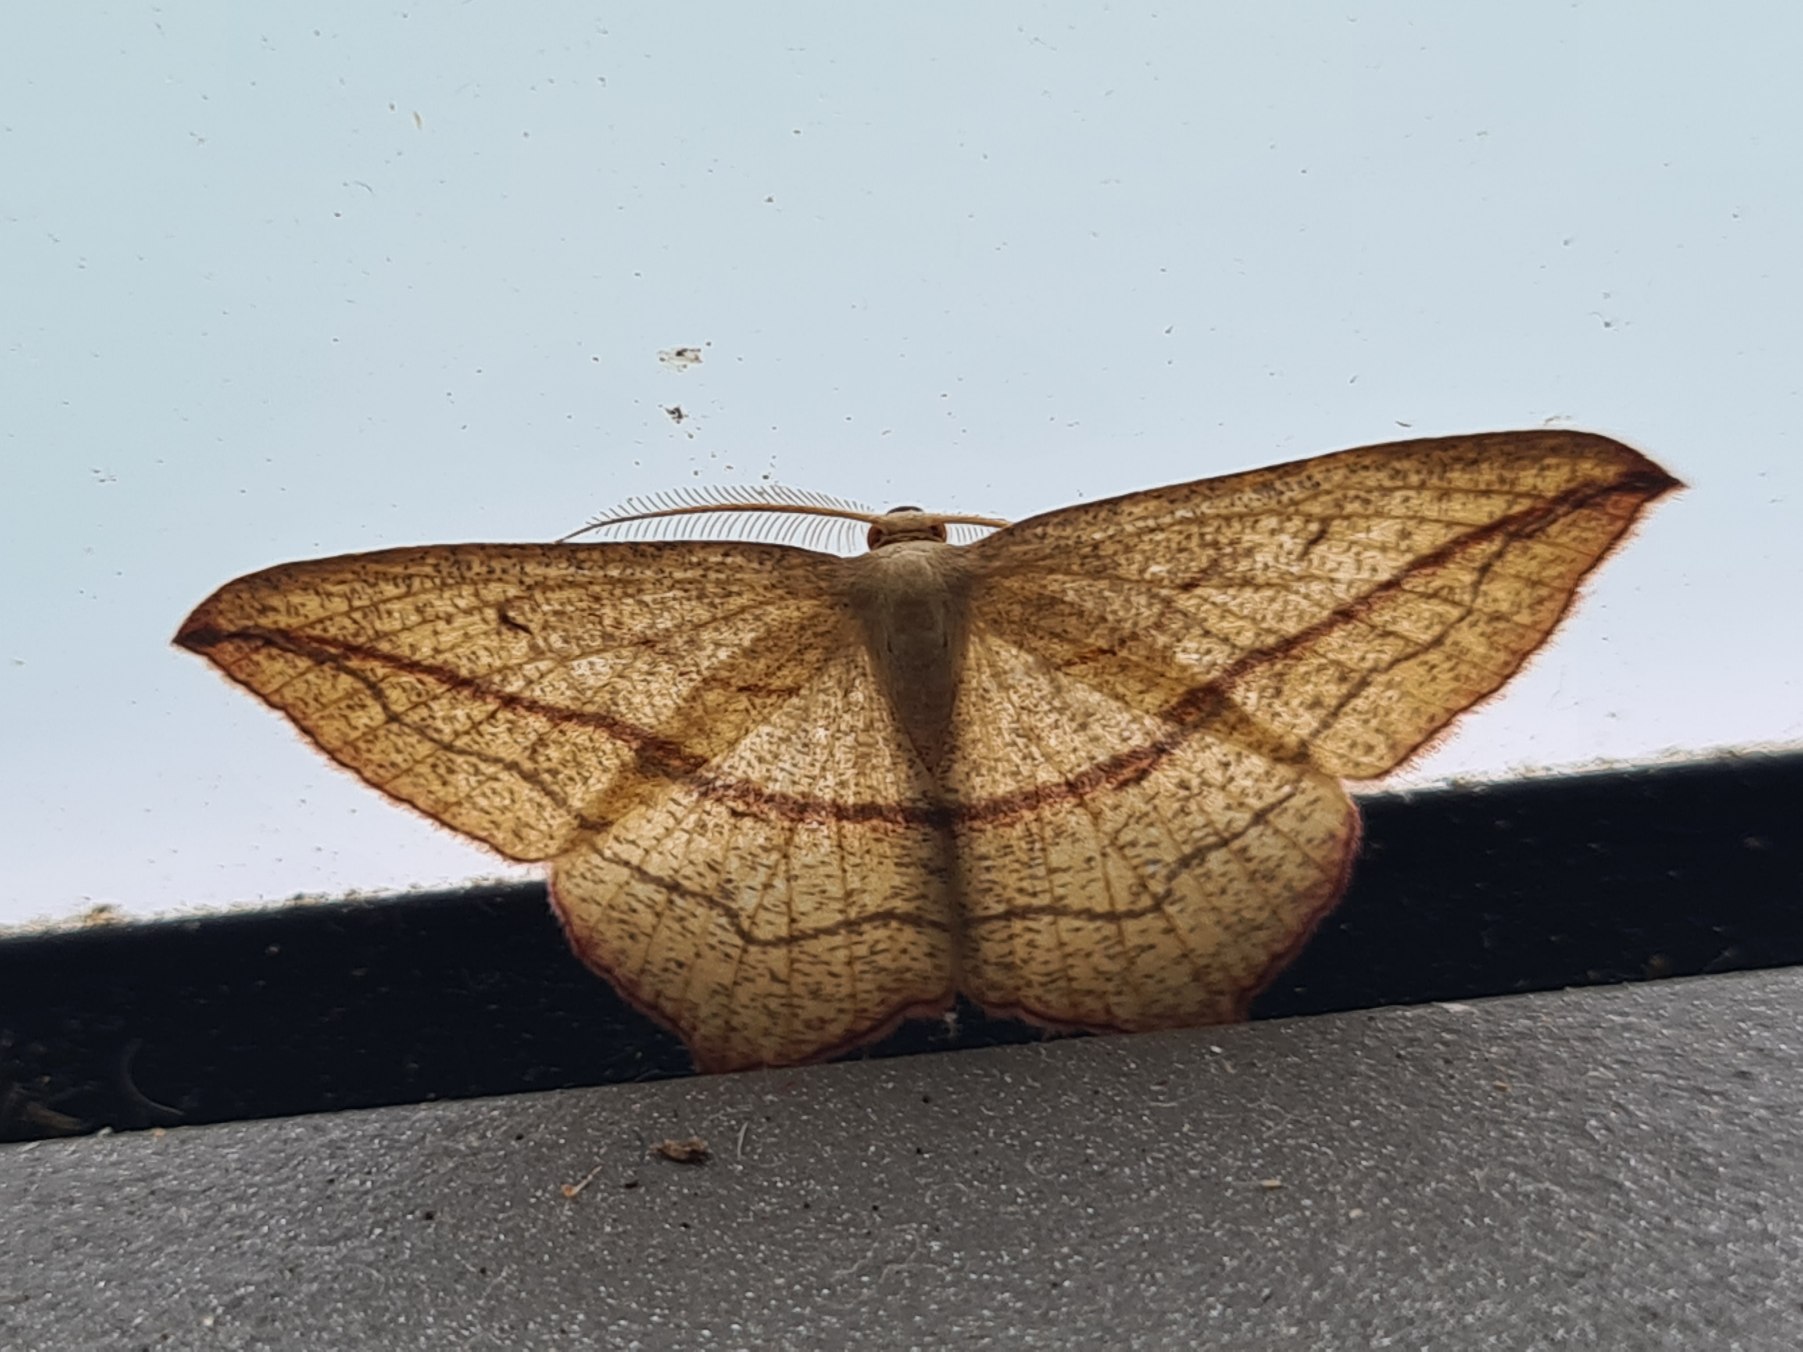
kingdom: Animalia
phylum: Arthropoda
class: Insecta
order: Lepidoptera
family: Geometridae
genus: Timandra
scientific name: Timandra comae
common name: Gul syremåler
